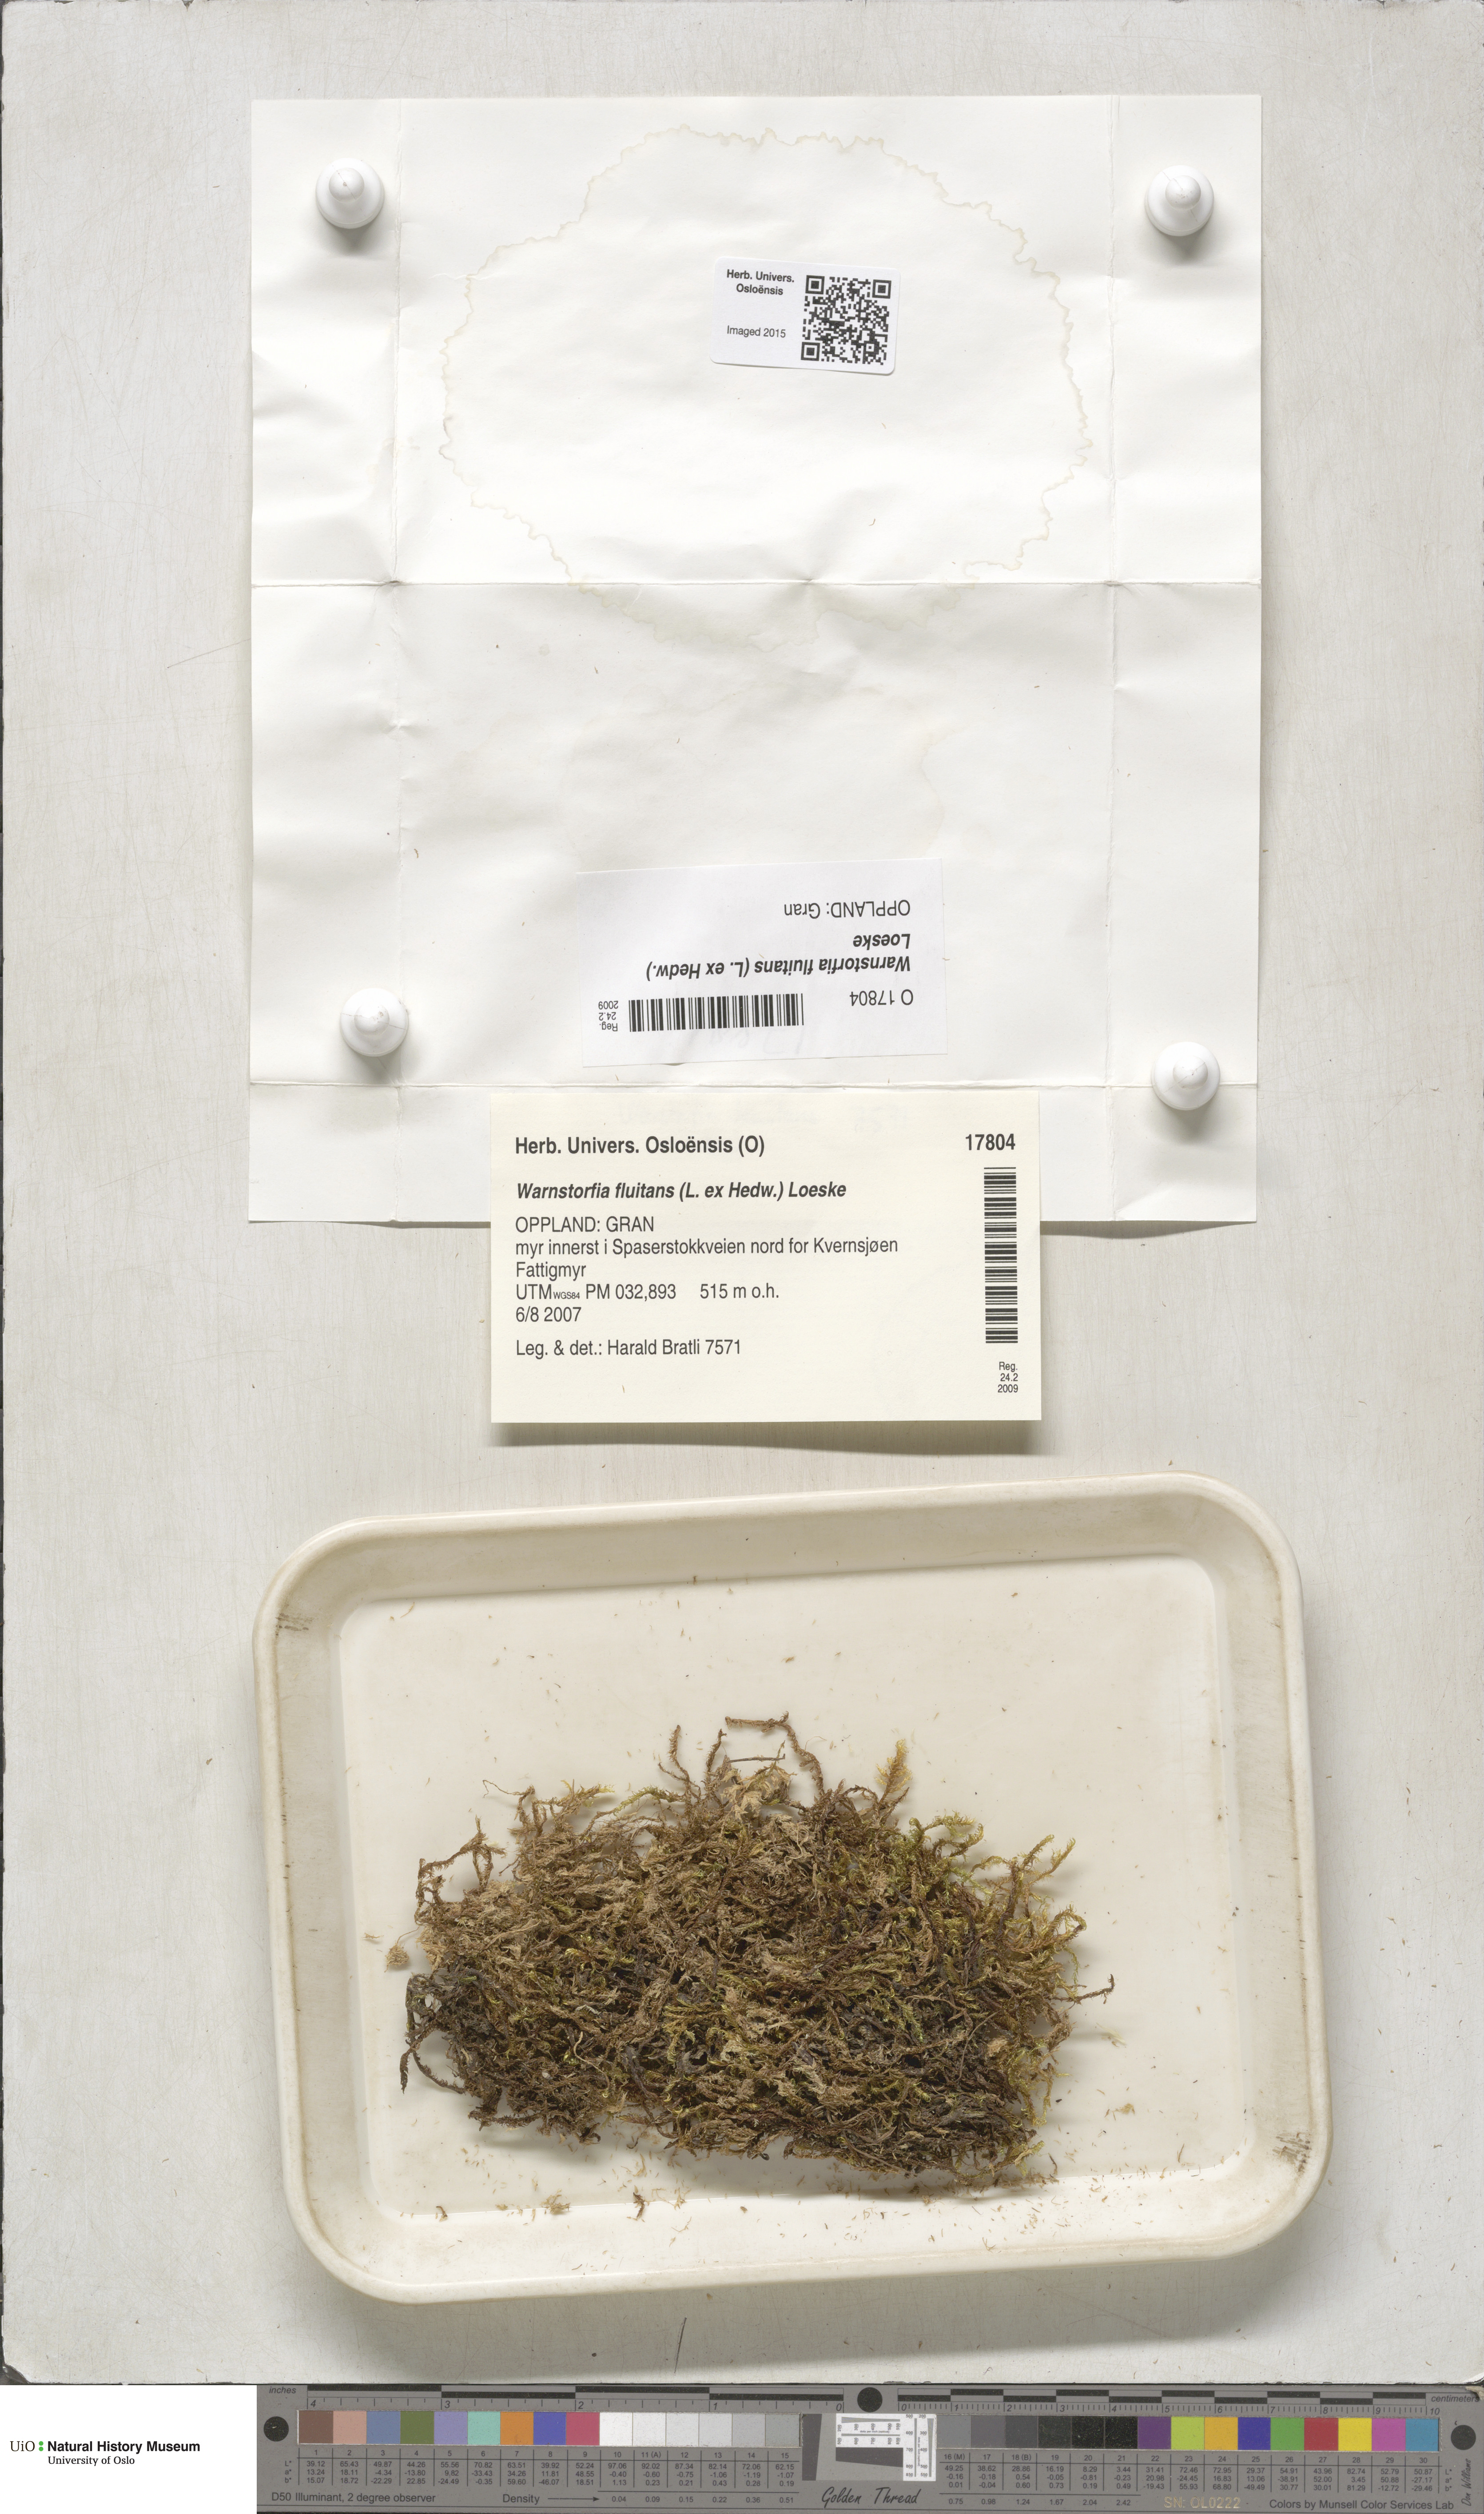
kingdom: Plantae
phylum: Bryophyta
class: Bryopsida
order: Hypnales
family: Calliergonaceae
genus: Warnstorfia
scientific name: Warnstorfia fluitans
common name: Floating hook moss
